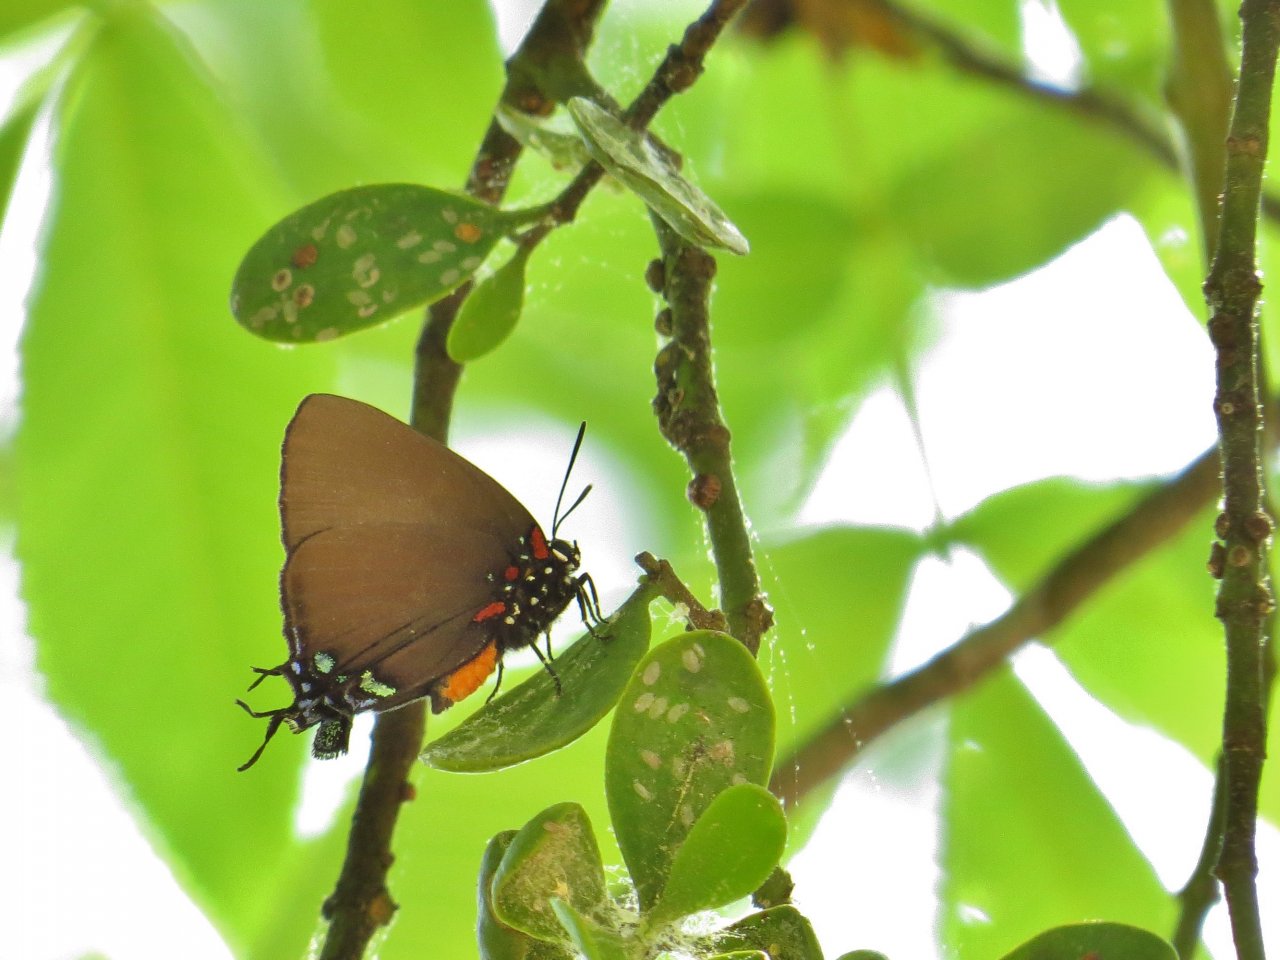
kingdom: Animalia
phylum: Arthropoda
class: Insecta
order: Lepidoptera
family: Lycaenidae
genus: Atlides
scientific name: Atlides halesus
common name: Great Purple Hairstreak
